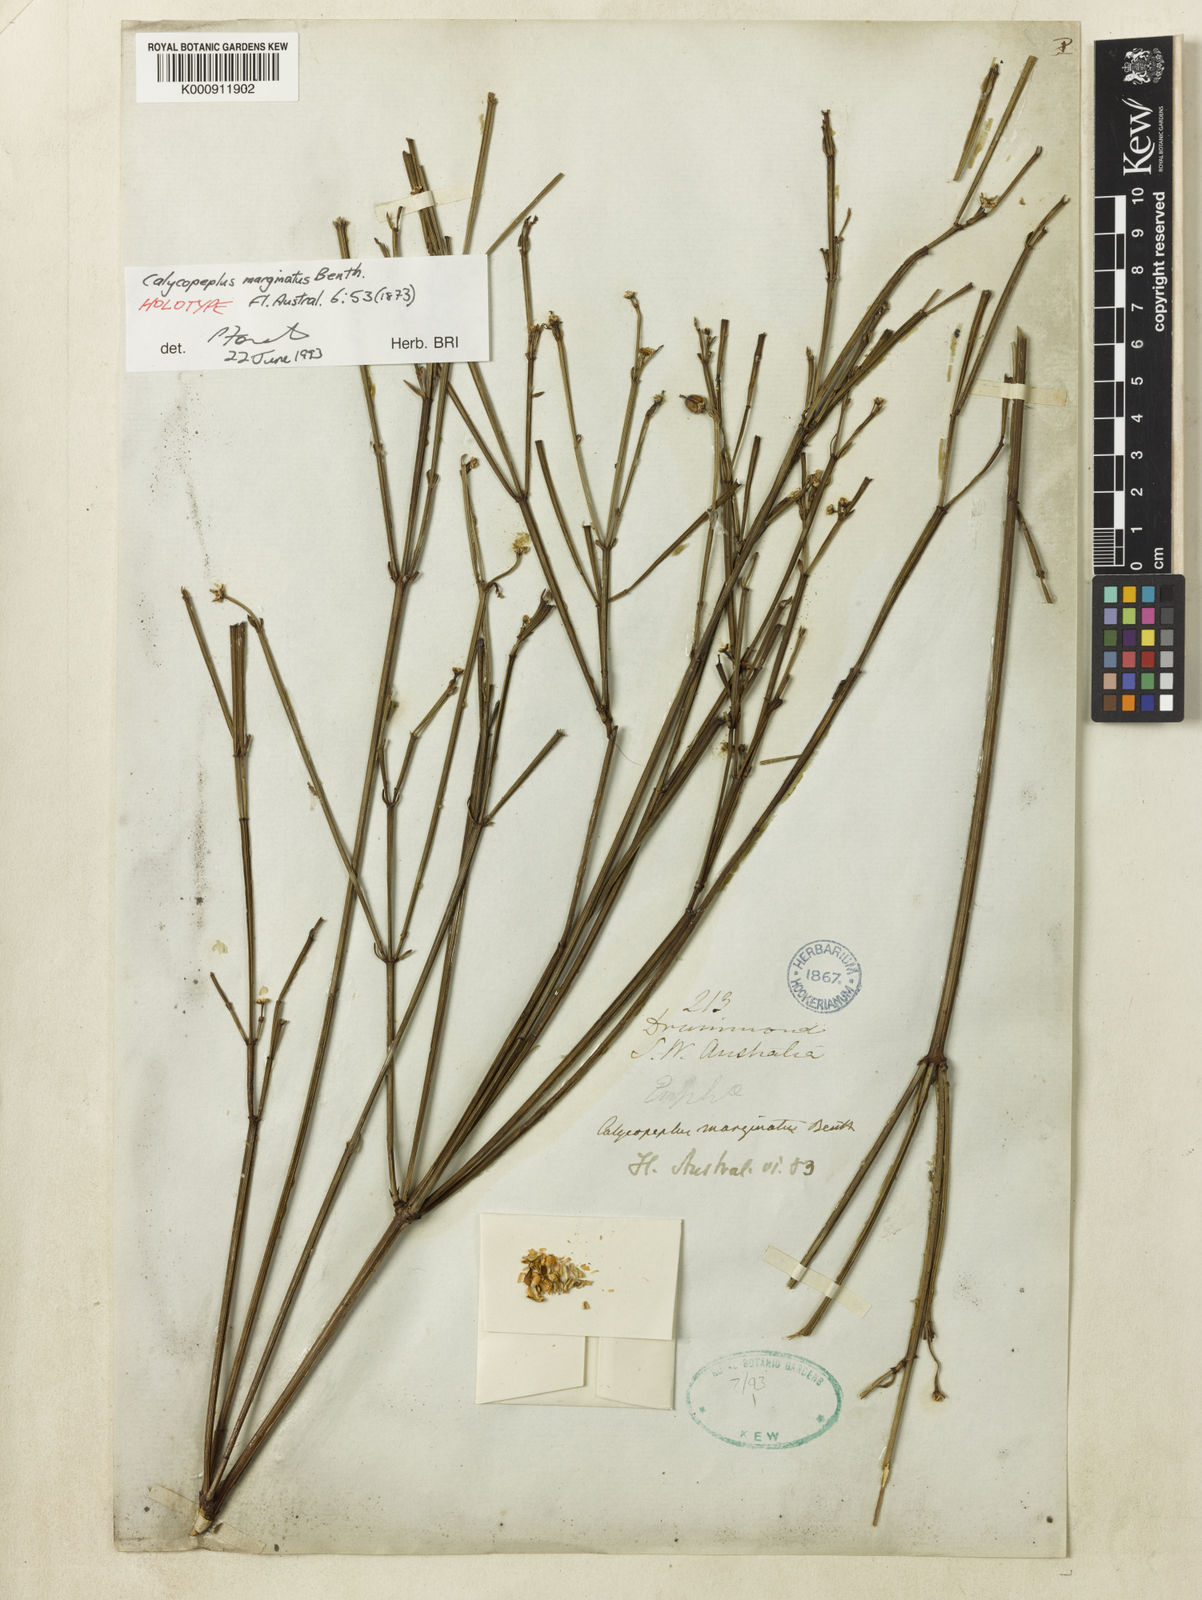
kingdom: Plantae
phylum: Tracheophyta
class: Magnoliopsida
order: Malpighiales
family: Euphorbiaceae
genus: Calycopeplus
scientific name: Calycopeplus marginatus
